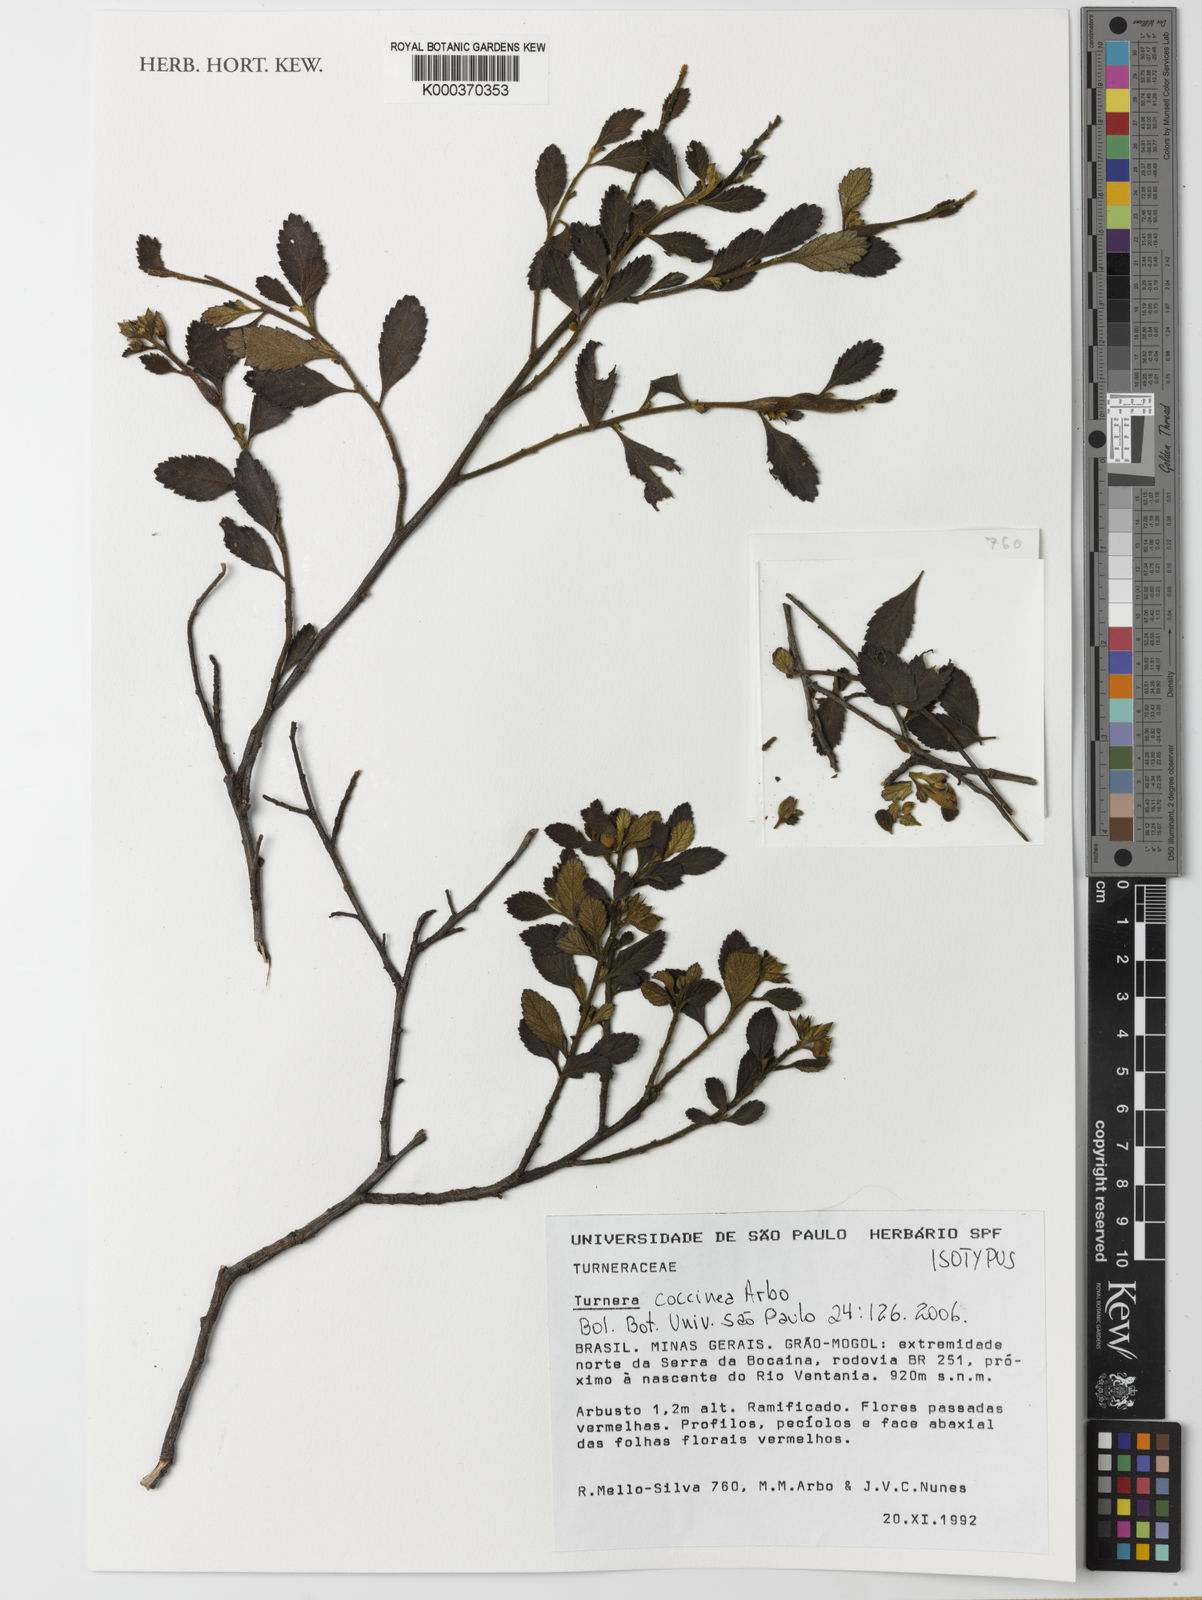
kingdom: Plantae
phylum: Tracheophyta
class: Magnoliopsida
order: Malpighiales
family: Turneraceae
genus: Turnera
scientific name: Turnera coccinea
